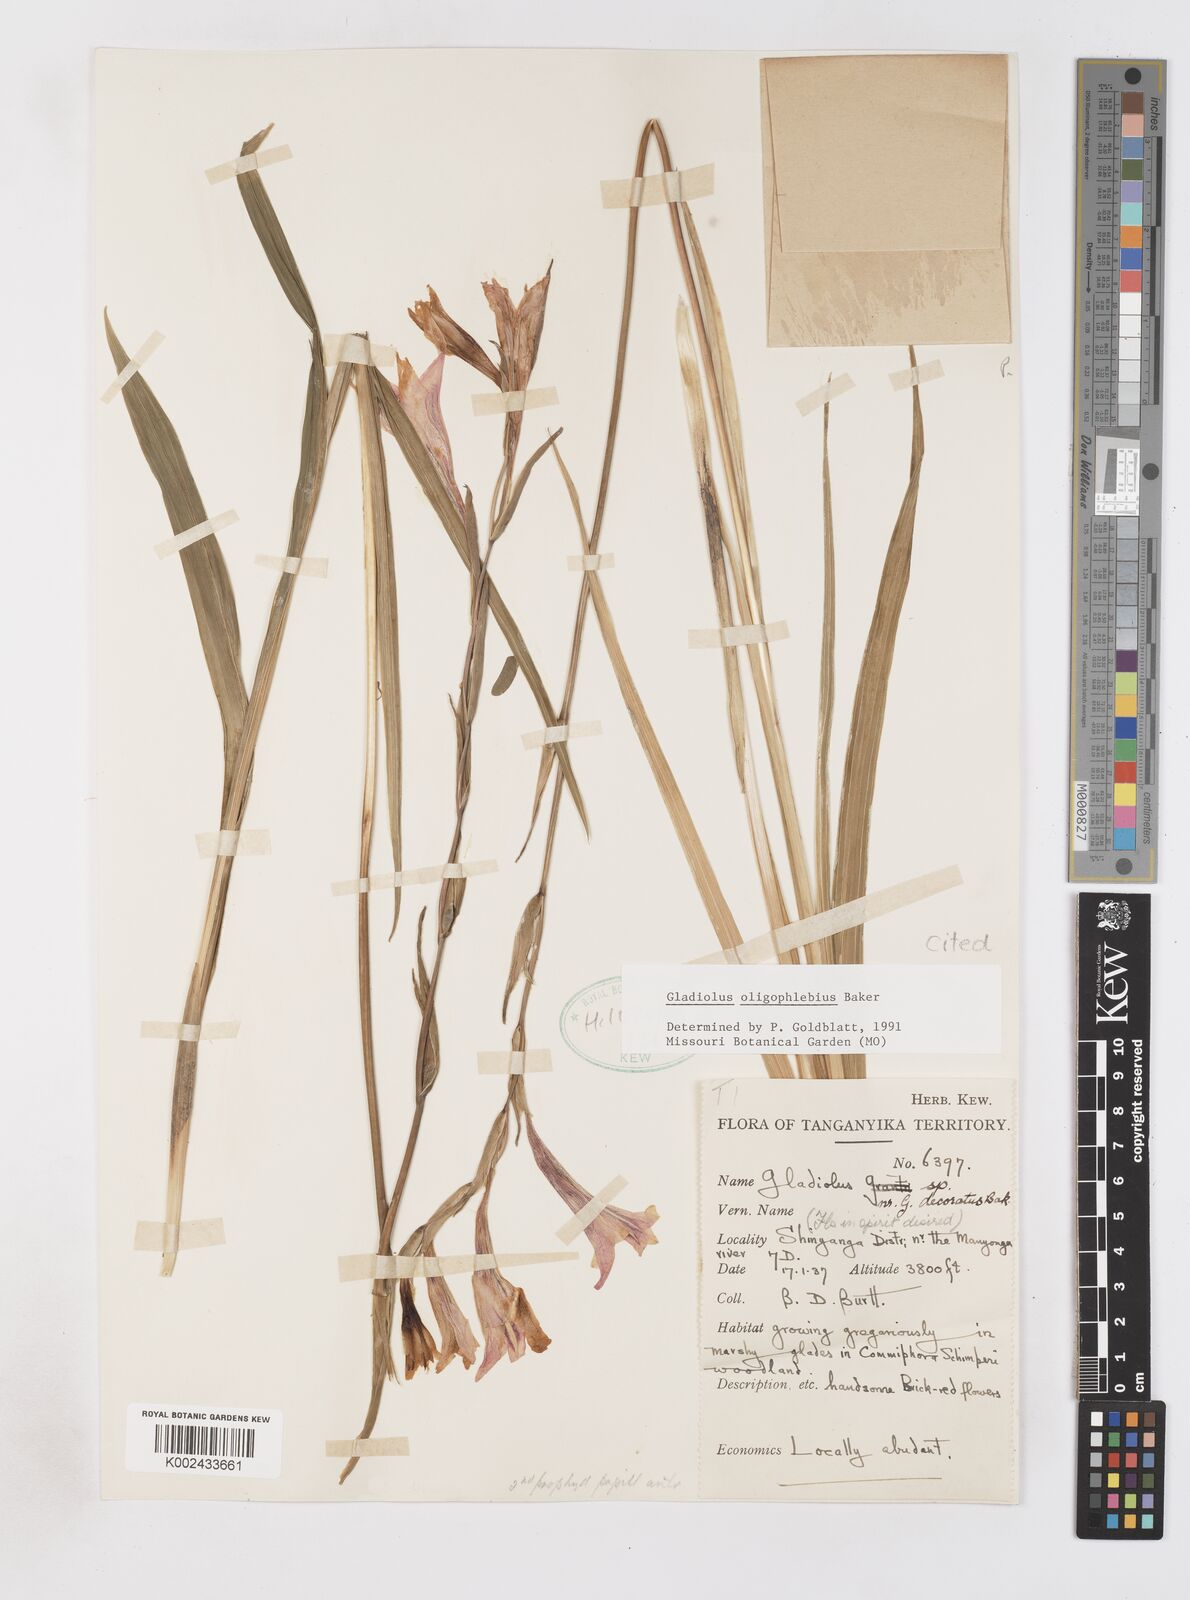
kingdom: Plantae
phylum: Tracheophyta
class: Liliopsida
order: Asparagales
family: Iridaceae
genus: Gladiolus
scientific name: Gladiolus oligophlebius
